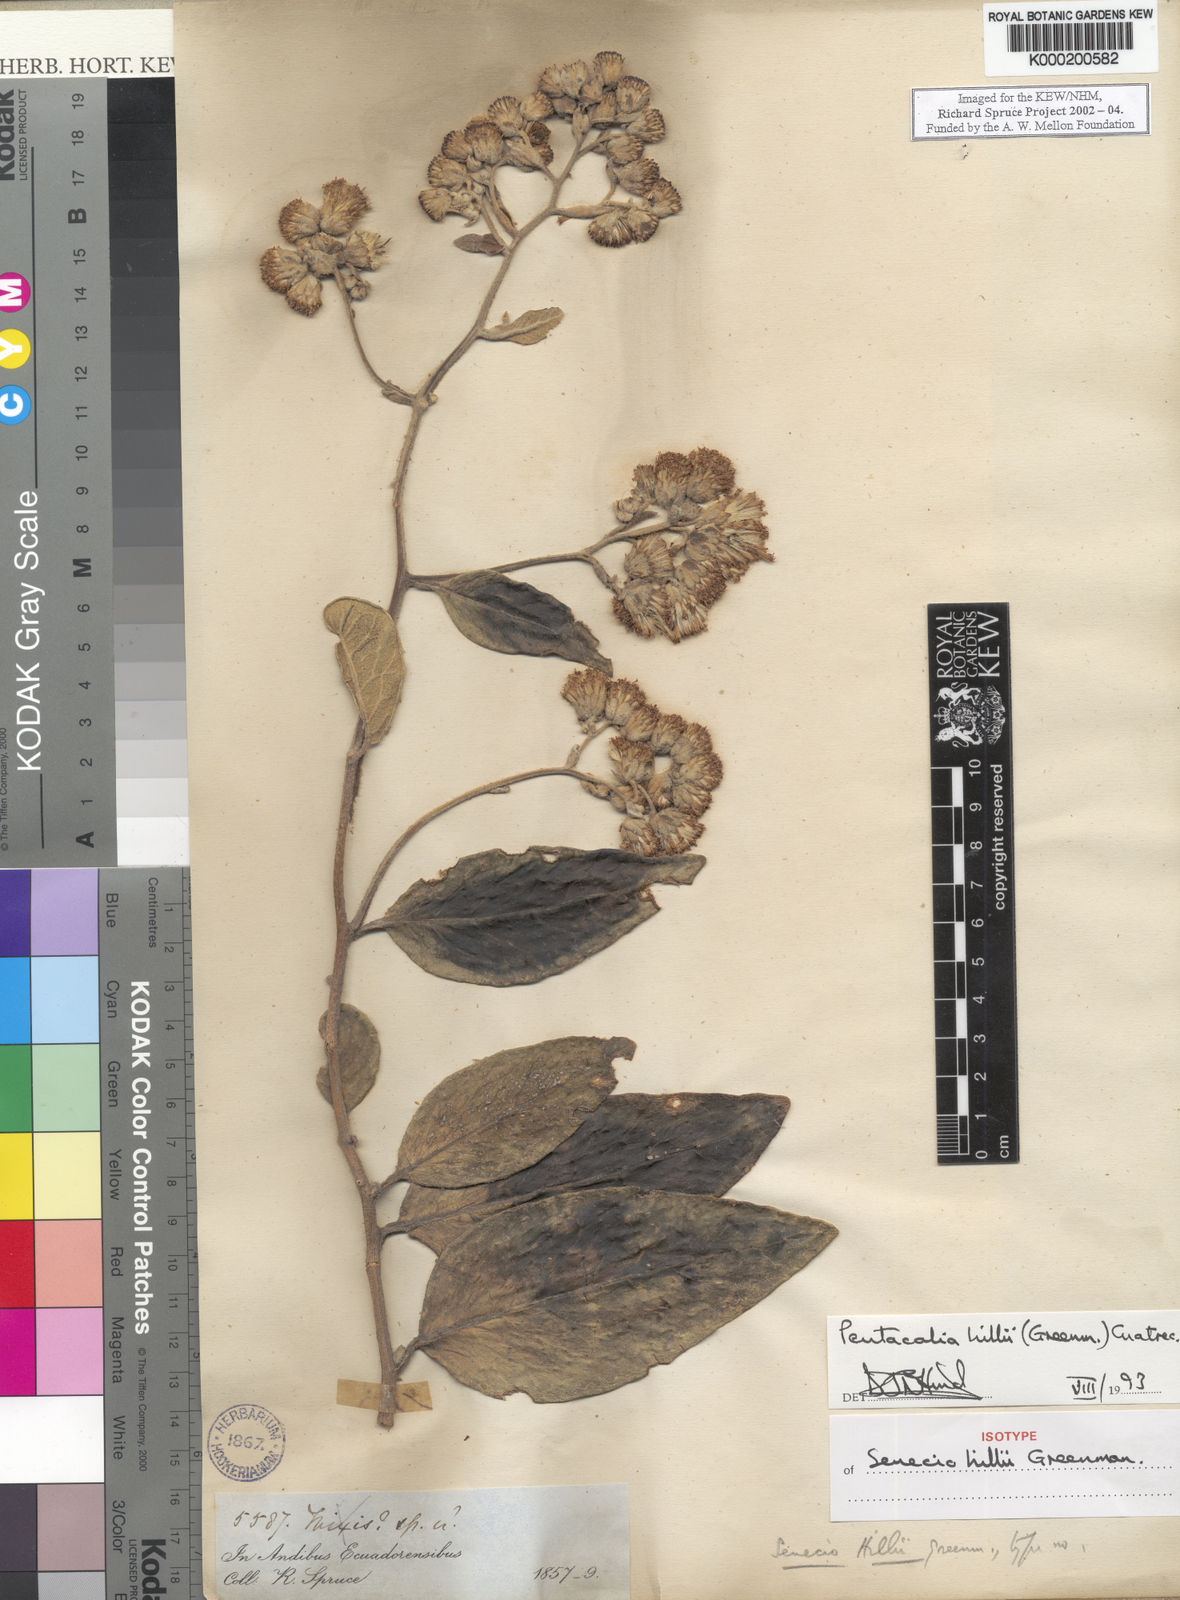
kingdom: Plantae
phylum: Tracheophyta
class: Magnoliopsida
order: Asterales
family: Asteraceae
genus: Pentacalia
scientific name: Pentacalia hillii
